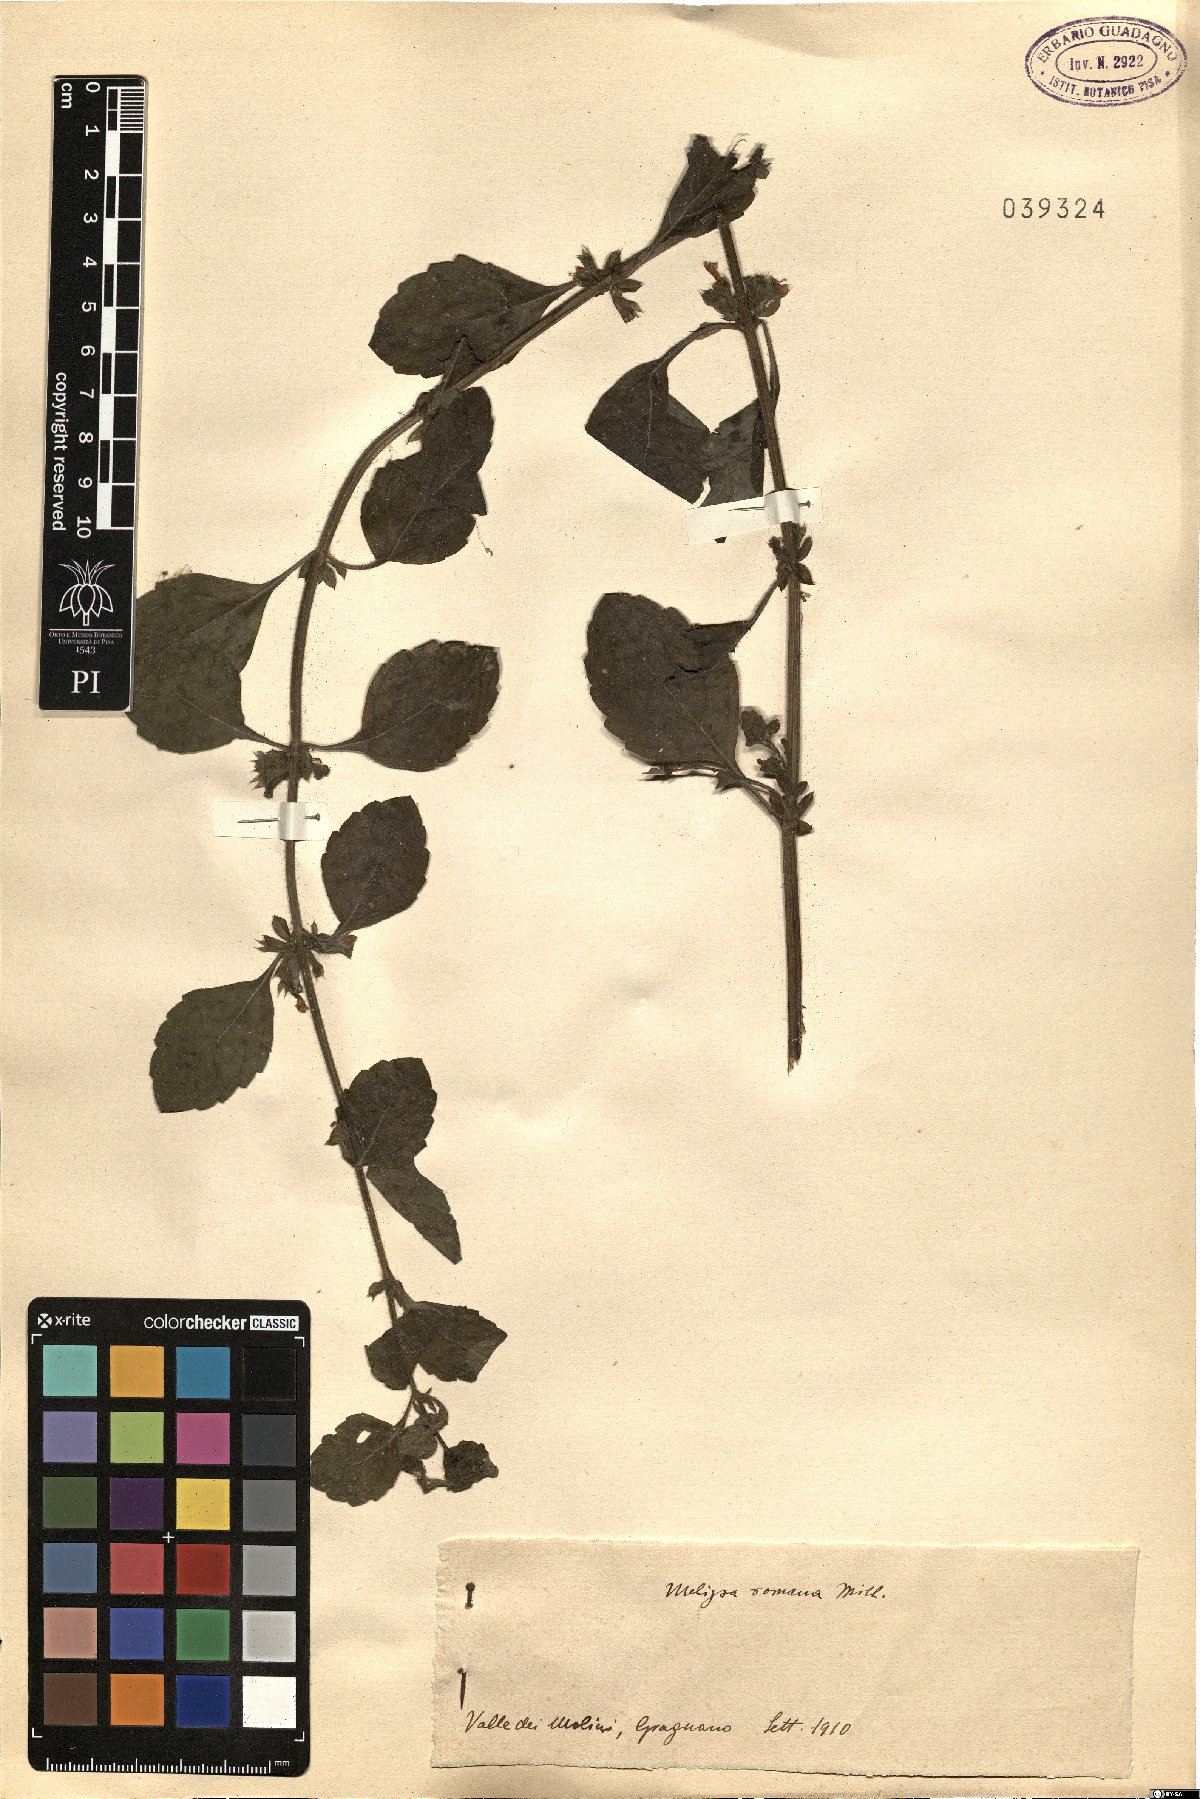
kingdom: Plantae
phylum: Tracheophyta
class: Magnoliopsida
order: Lamiales
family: Lamiaceae
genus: Melissa
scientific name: Melissa officinalis
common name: Balm
